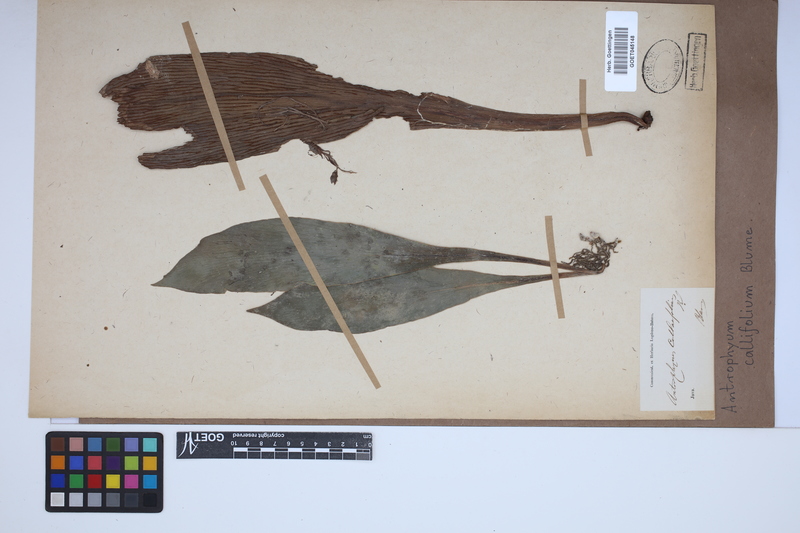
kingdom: Plantae
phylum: Tracheophyta
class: Polypodiopsida
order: Polypodiales
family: Pteridaceae
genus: Antrophyum
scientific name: Antrophyum callifolium
